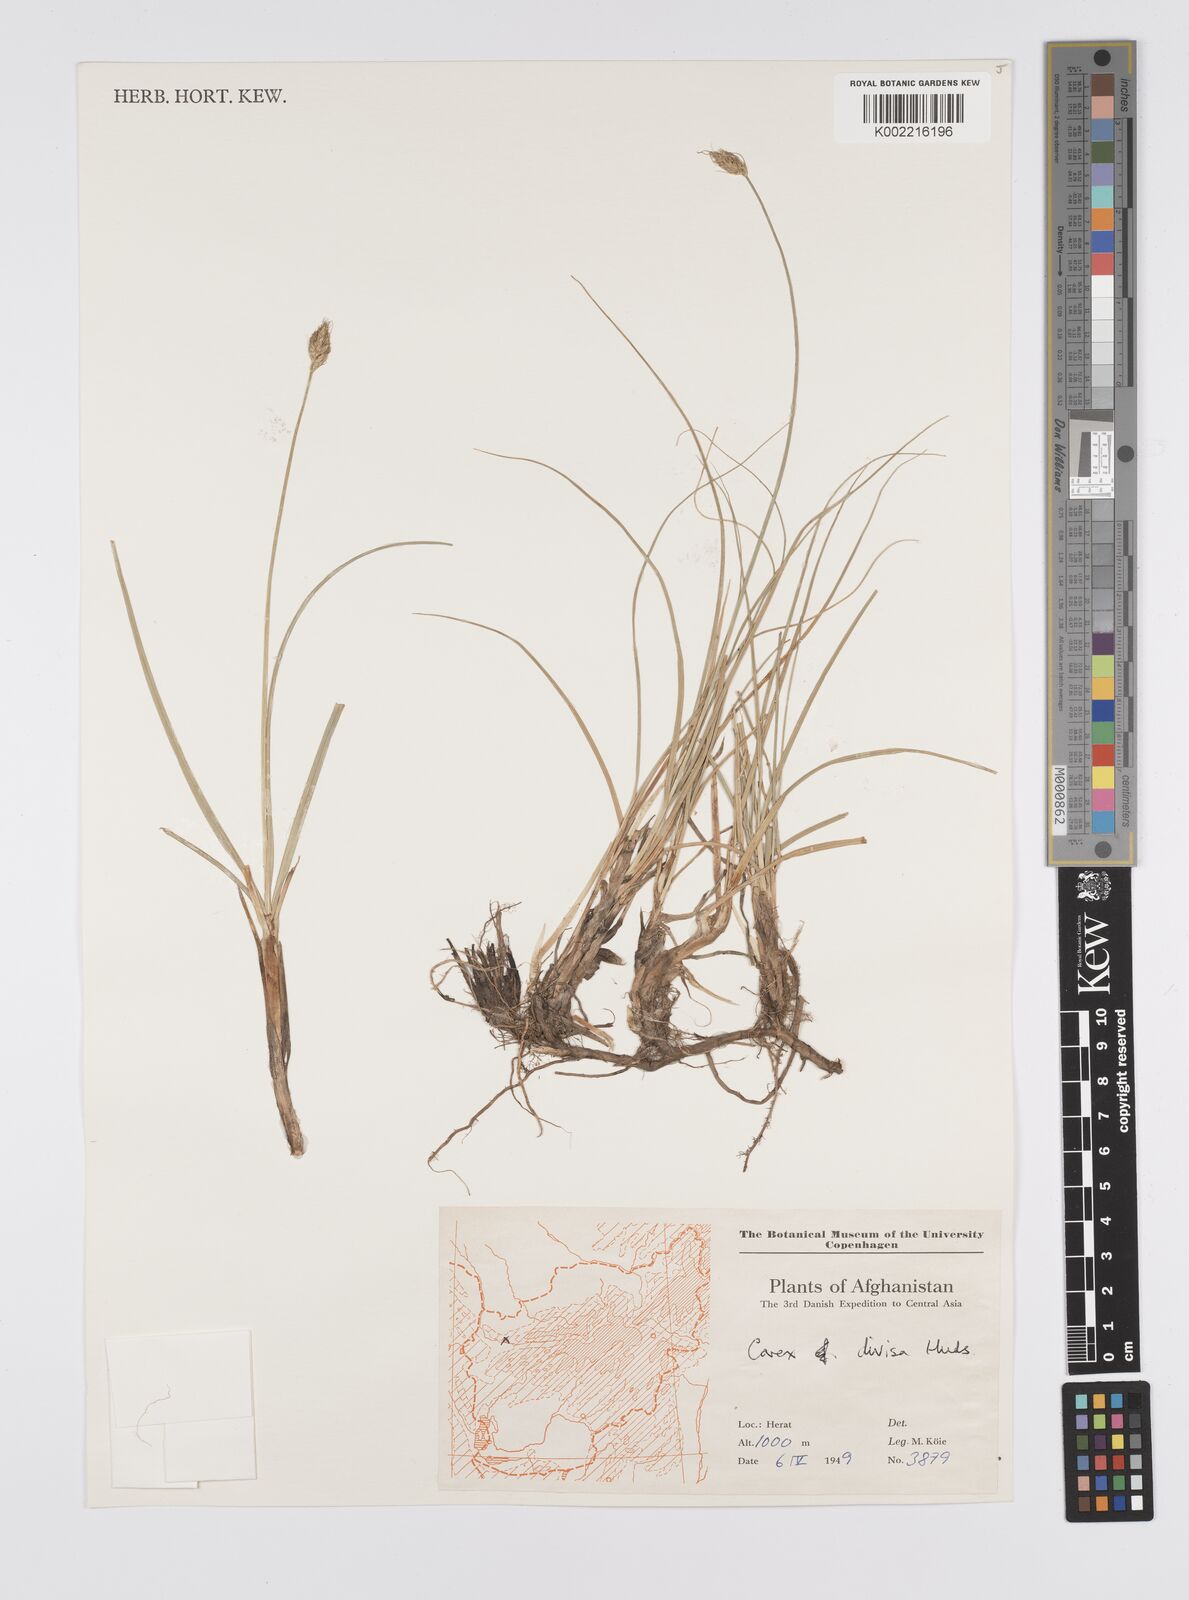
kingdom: Plantae
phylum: Tracheophyta
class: Liliopsida
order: Poales
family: Cyperaceae
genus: Carex
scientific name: Carex divisa
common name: Divided sedge
